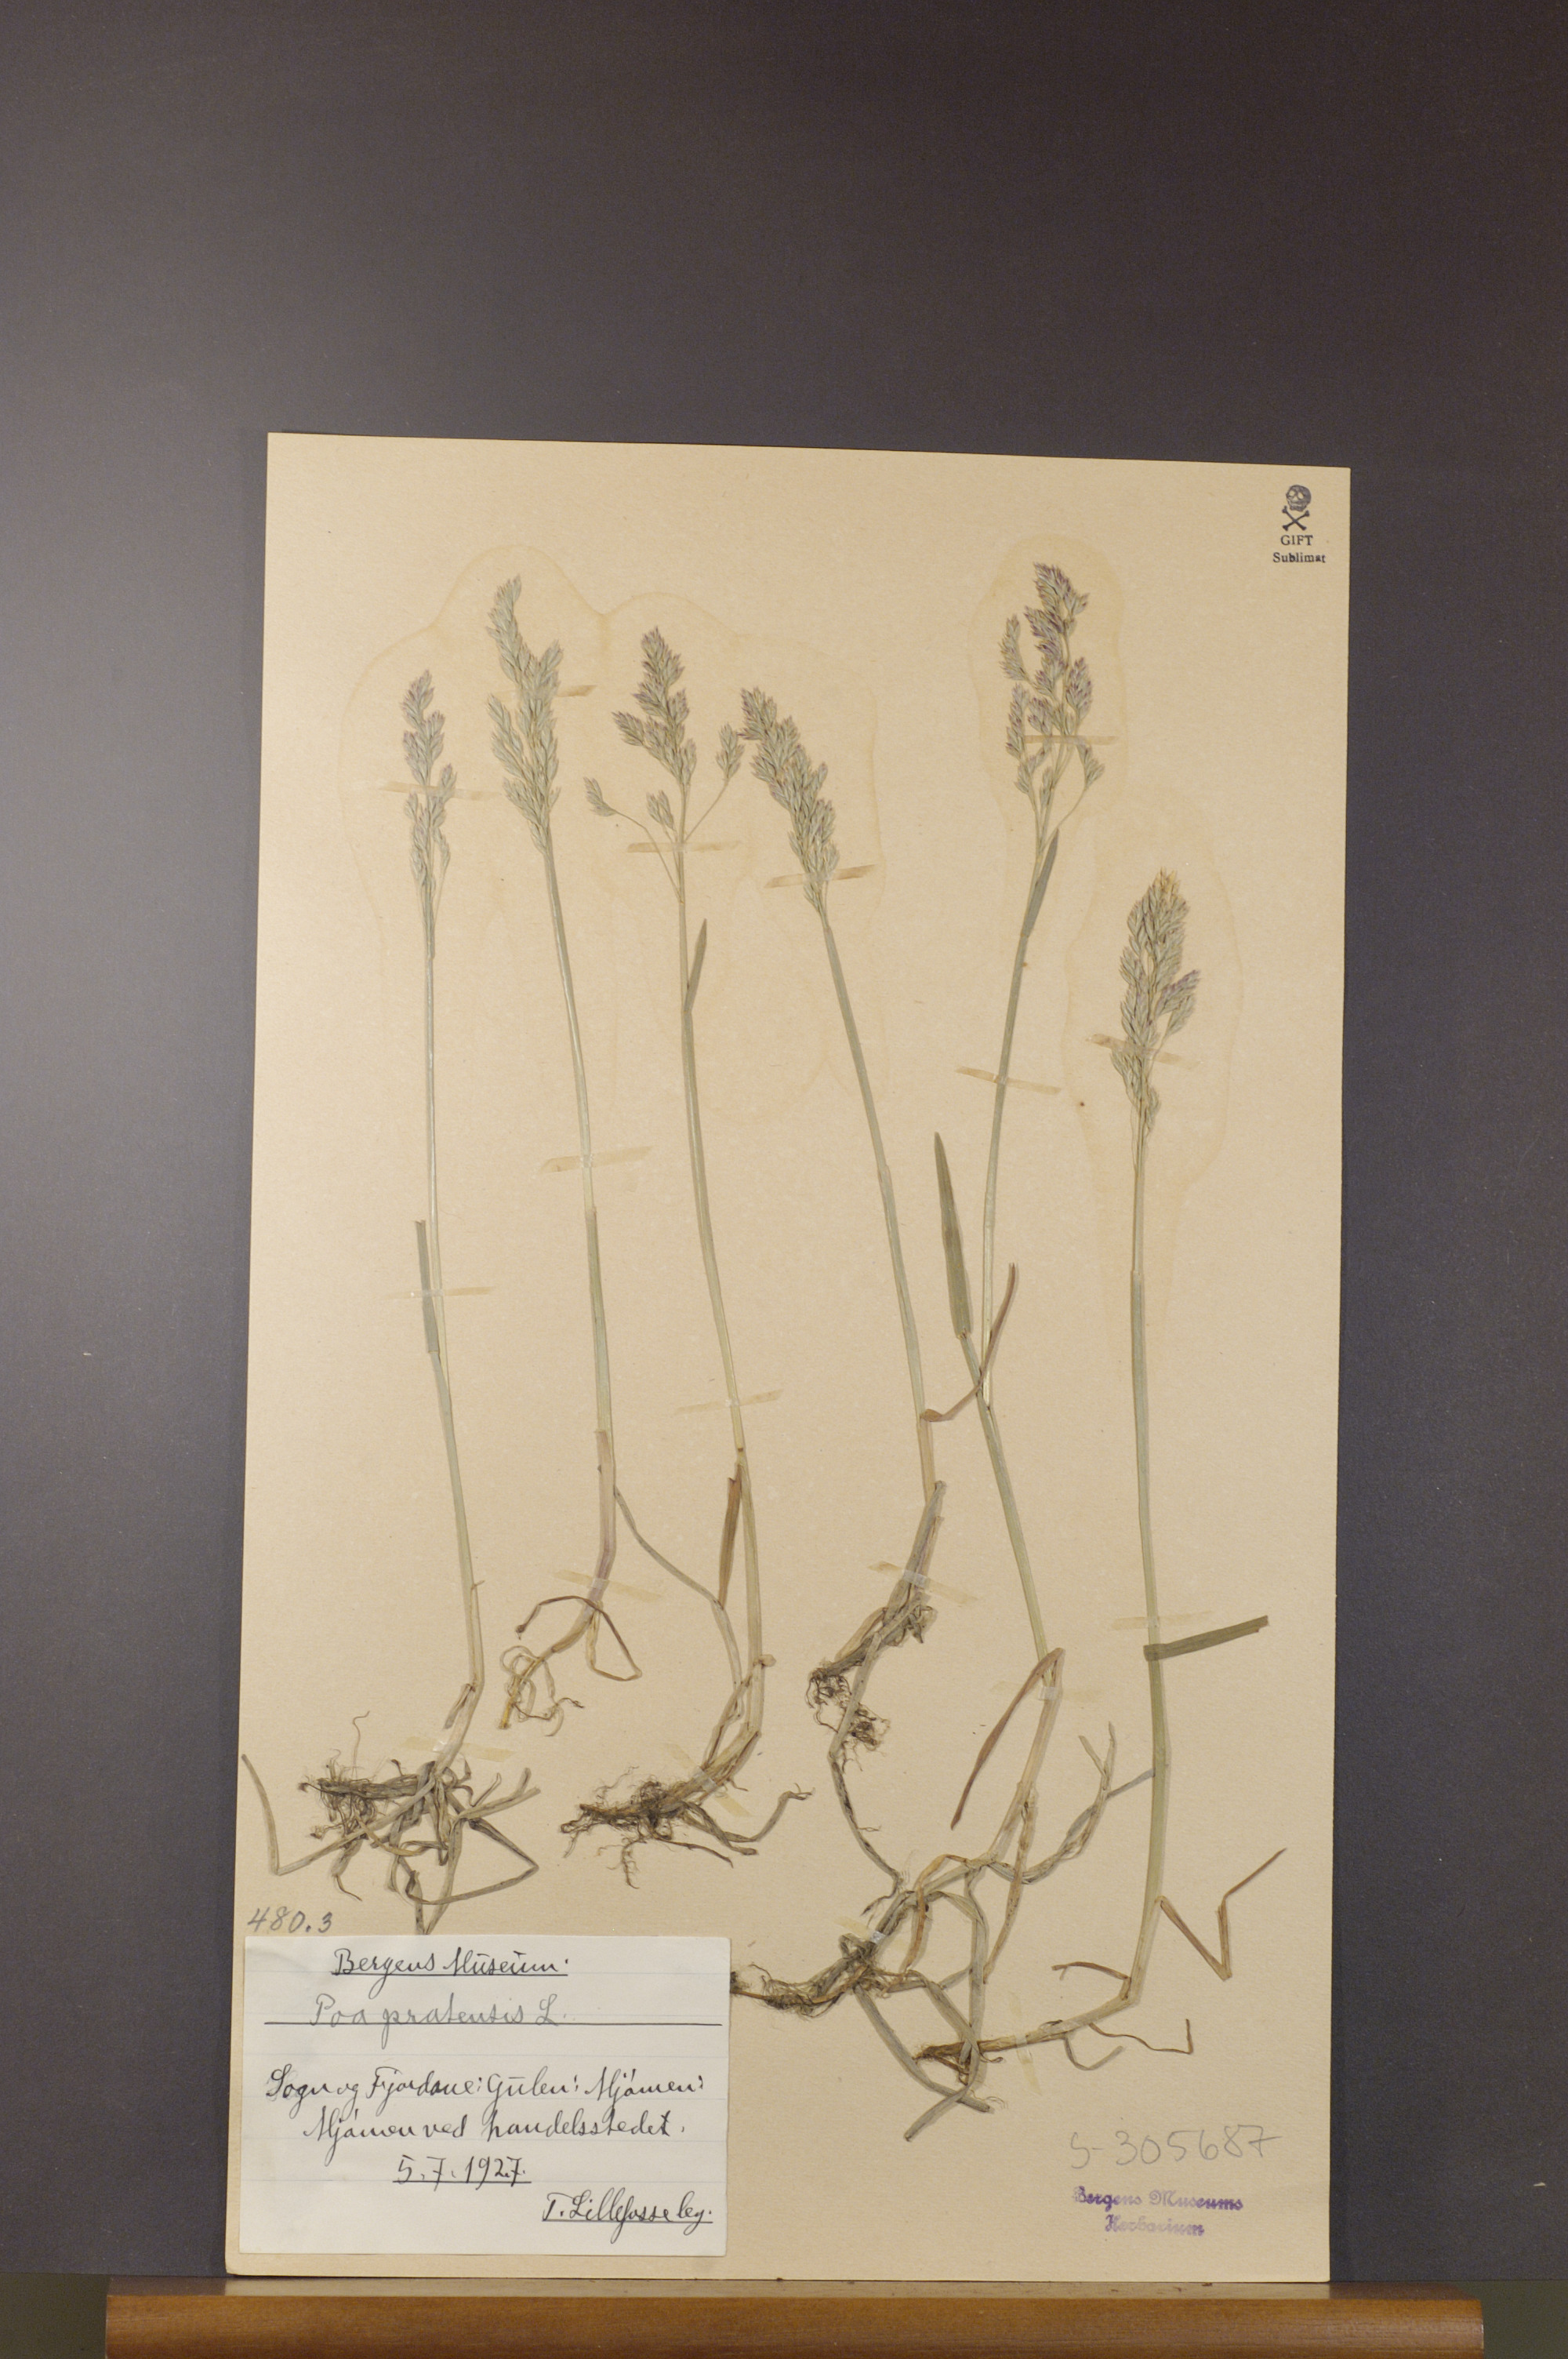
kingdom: Plantae
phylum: Tracheophyta
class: Liliopsida
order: Poales
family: Poaceae
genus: Poa
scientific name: Poa pratensis
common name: Kentucky bluegrass
